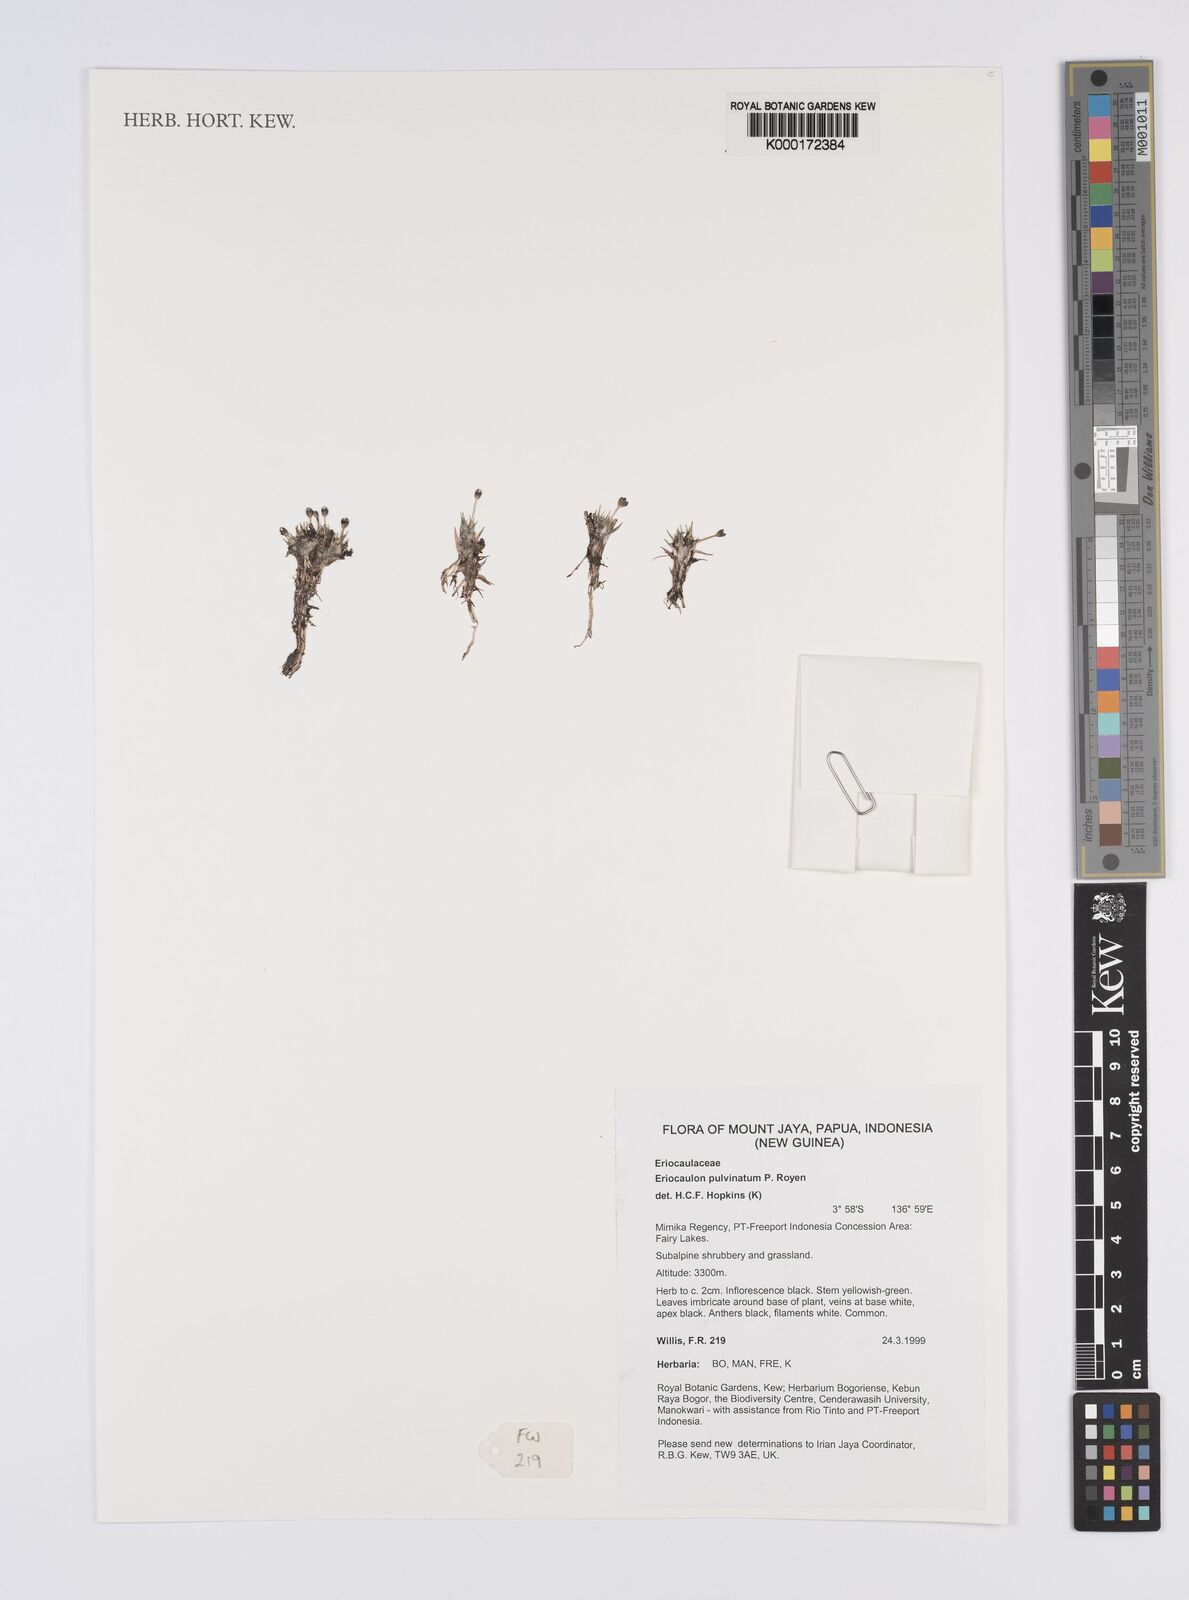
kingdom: Plantae
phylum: Tracheophyta
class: Liliopsida
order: Poales
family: Eriocaulaceae
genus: Eriocaulon
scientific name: Eriocaulon pulvinatum
